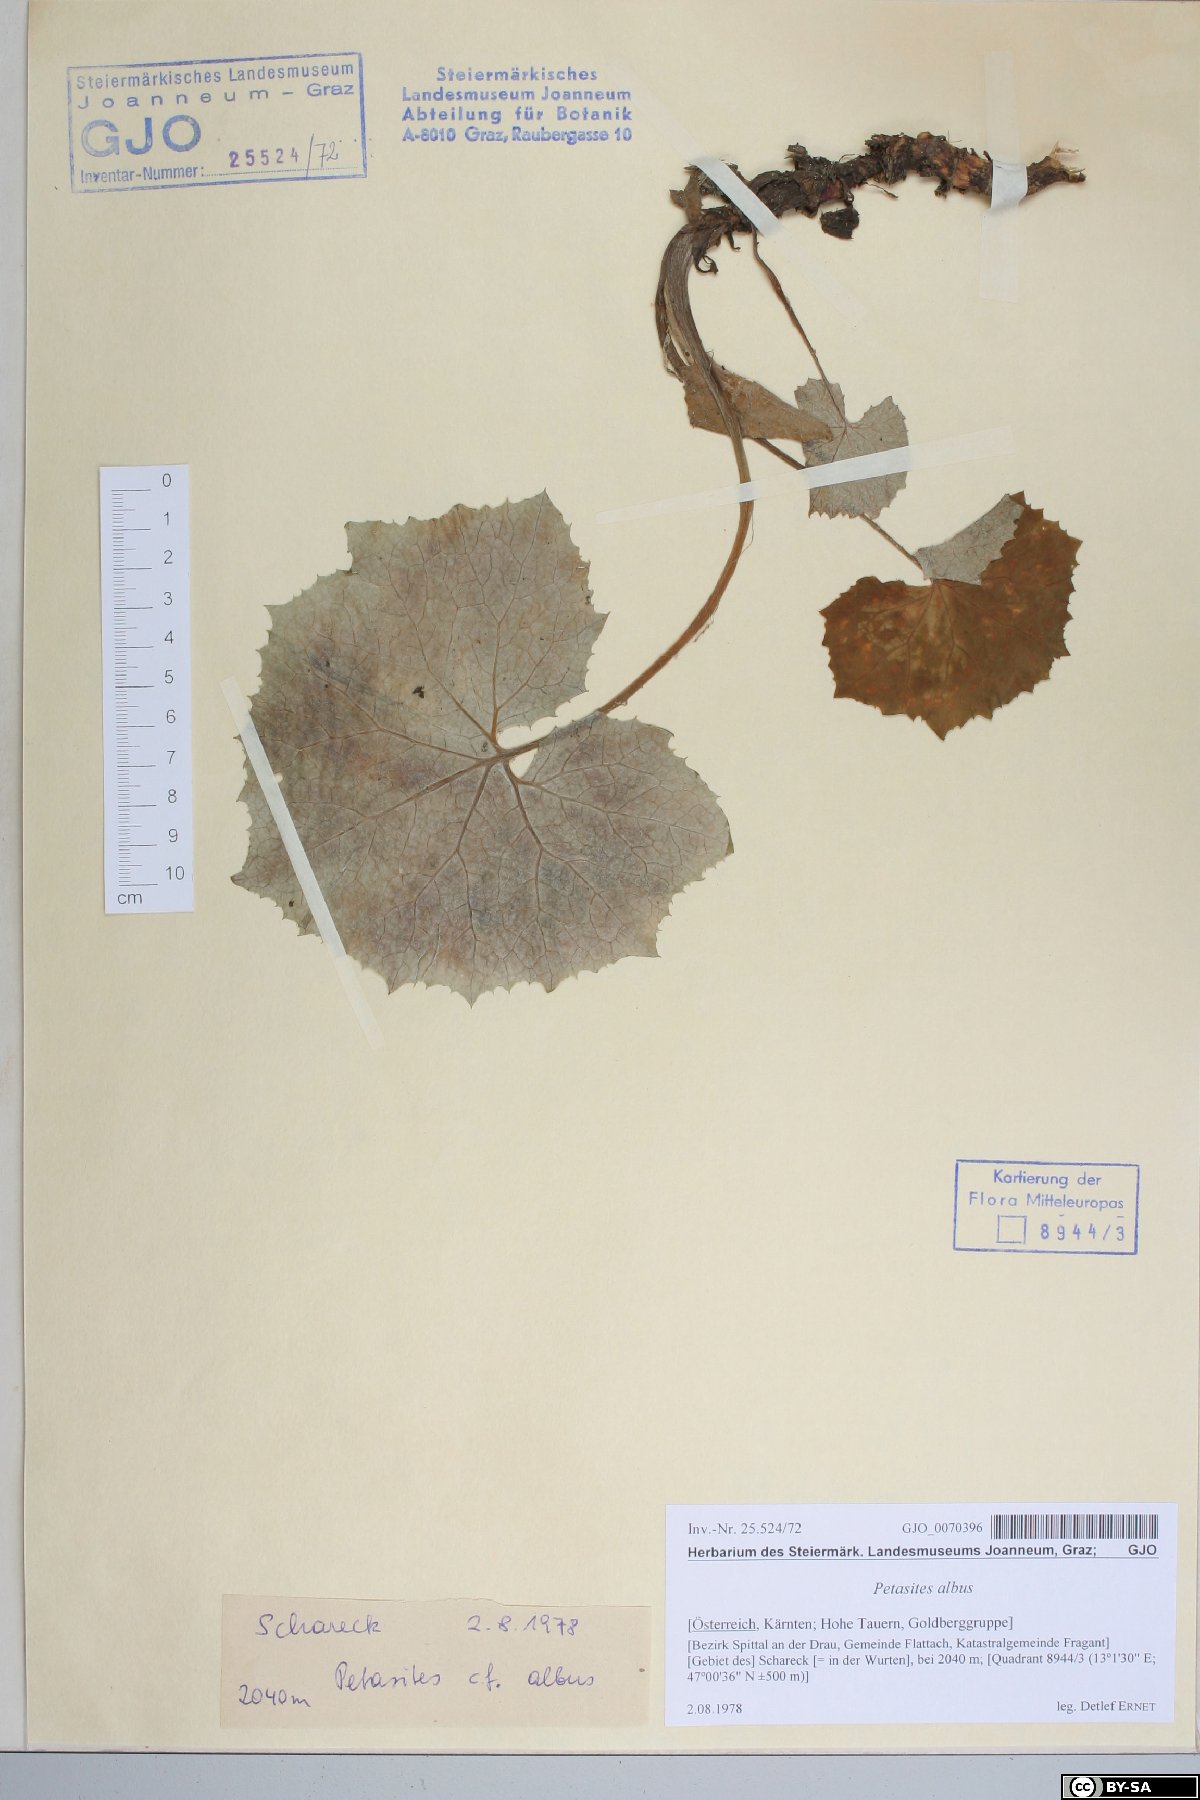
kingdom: Plantae
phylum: Tracheophyta
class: Magnoliopsida
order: Asterales
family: Asteraceae
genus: Petasites
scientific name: Petasites albus
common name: White butterbur
